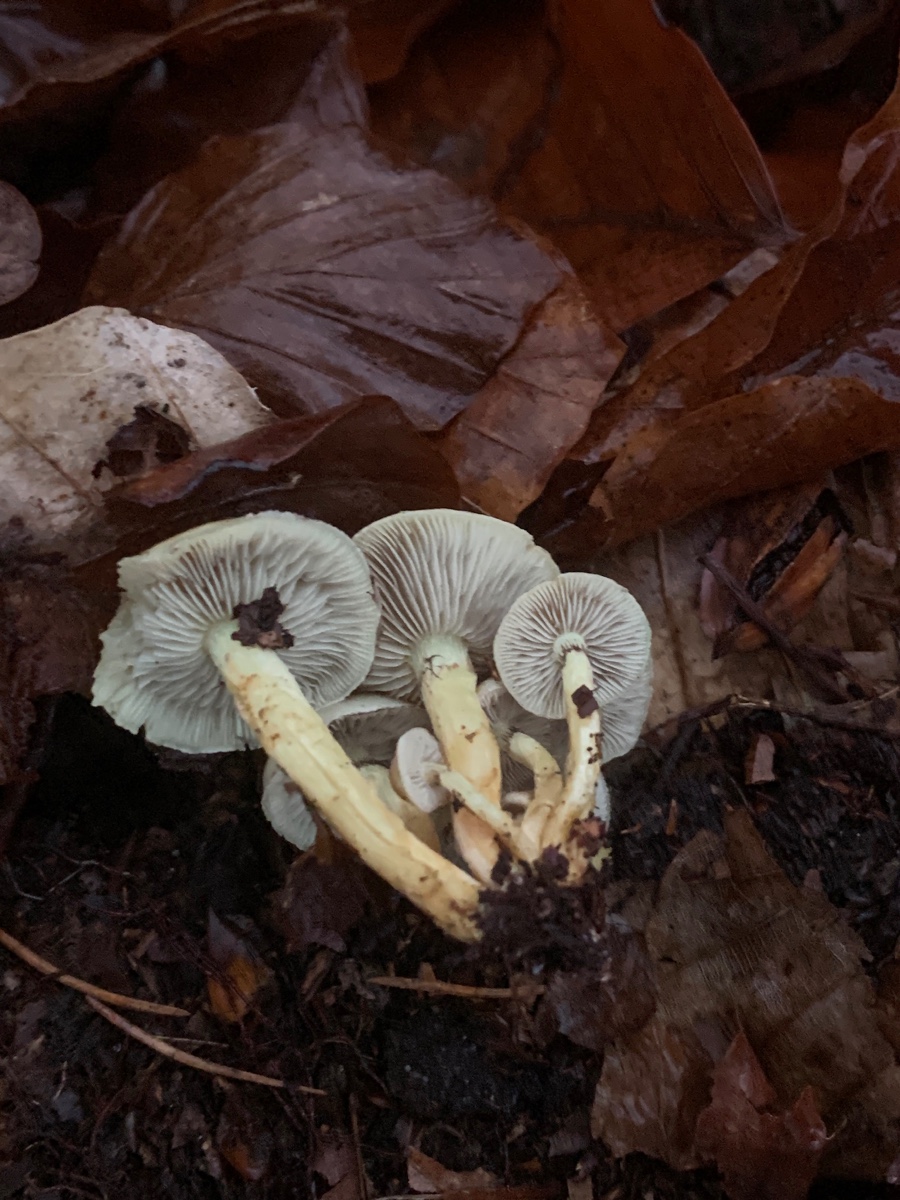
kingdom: Fungi
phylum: Basidiomycota
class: Agaricomycetes
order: Agaricales
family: Strophariaceae
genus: Hypholoma
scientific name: Hypholoma fasciculare
